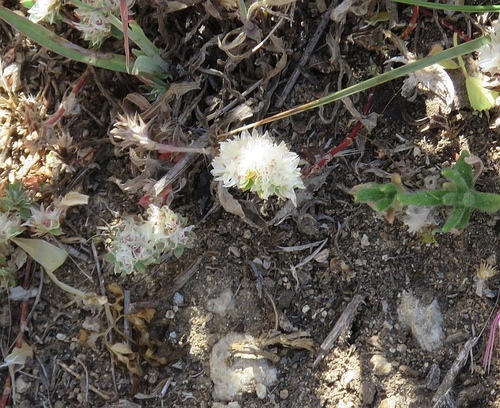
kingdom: Plantae
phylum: Tracheophyta
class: Magnoliopsida
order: Caryophyllales
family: Caryophyllaceae
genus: Paronychia
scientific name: Paronychia argentea
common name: Silver nailroot
